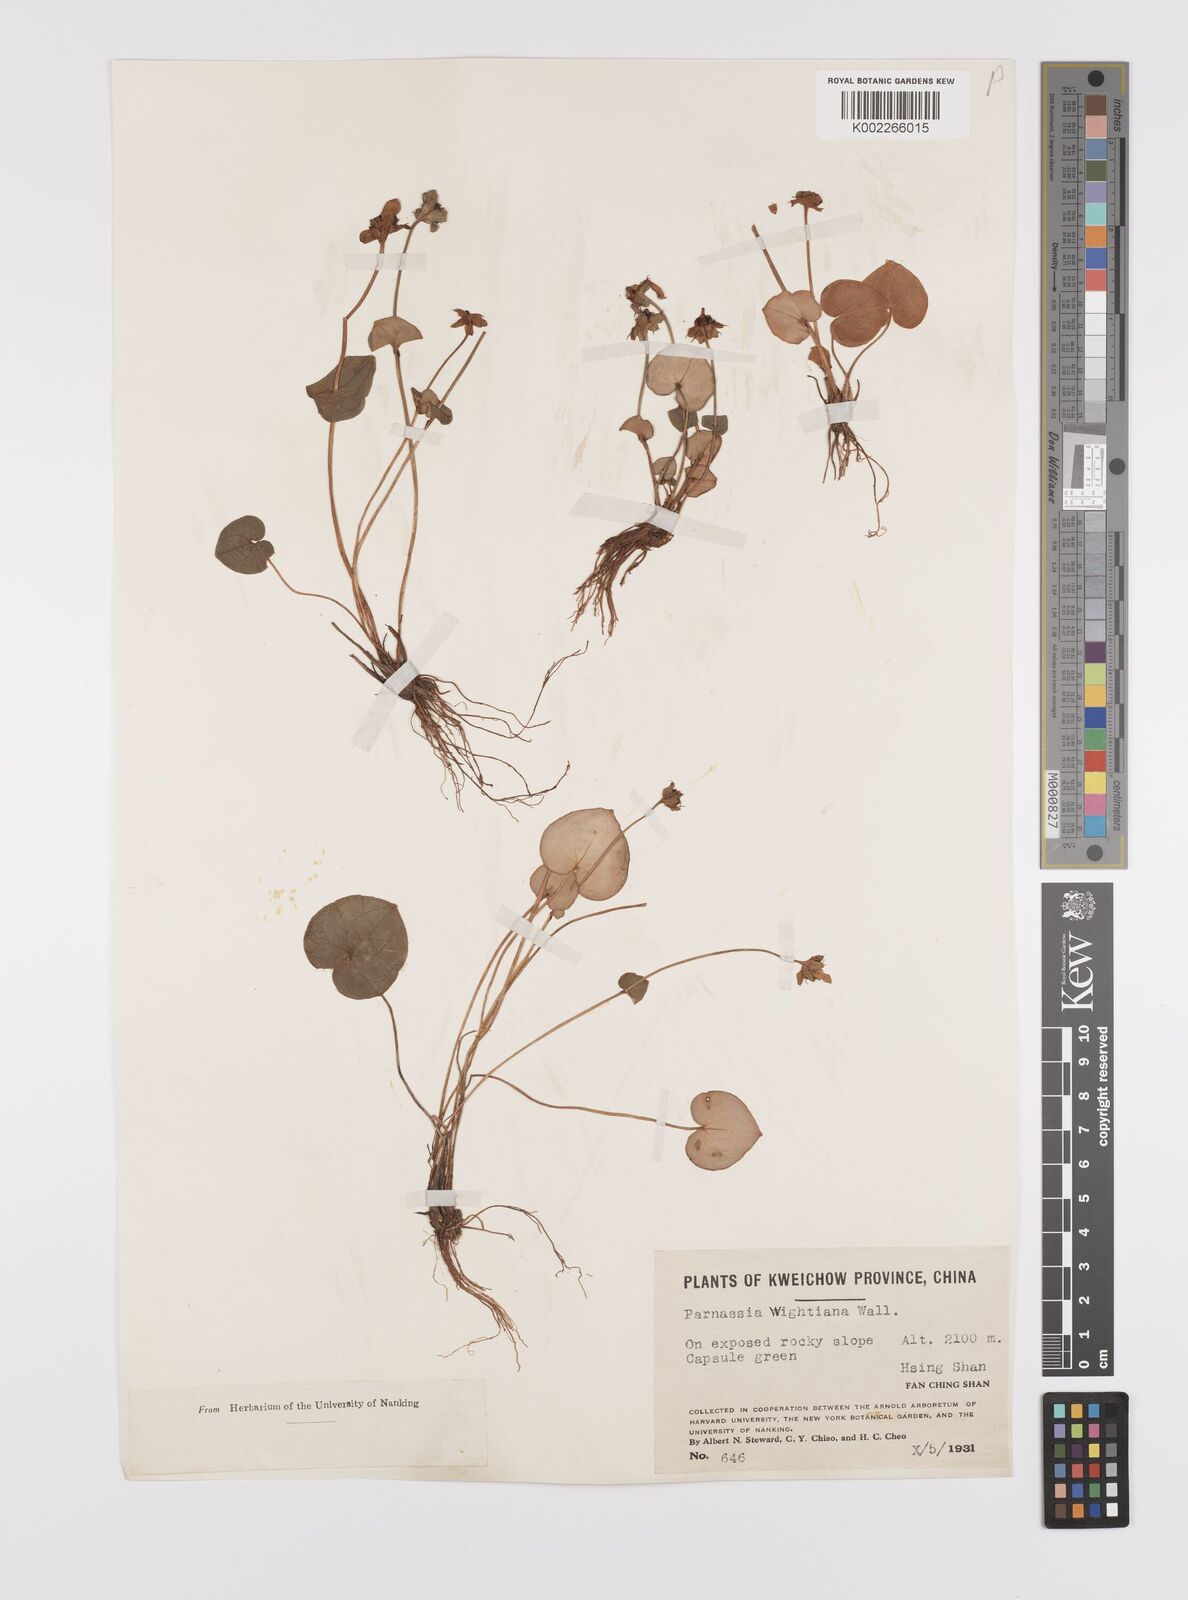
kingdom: Plantae
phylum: Tracheophyta
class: Magnoliopsida
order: Celastrales
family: Parnassiaceae
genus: Parnassia
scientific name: Parnassia wightiana
